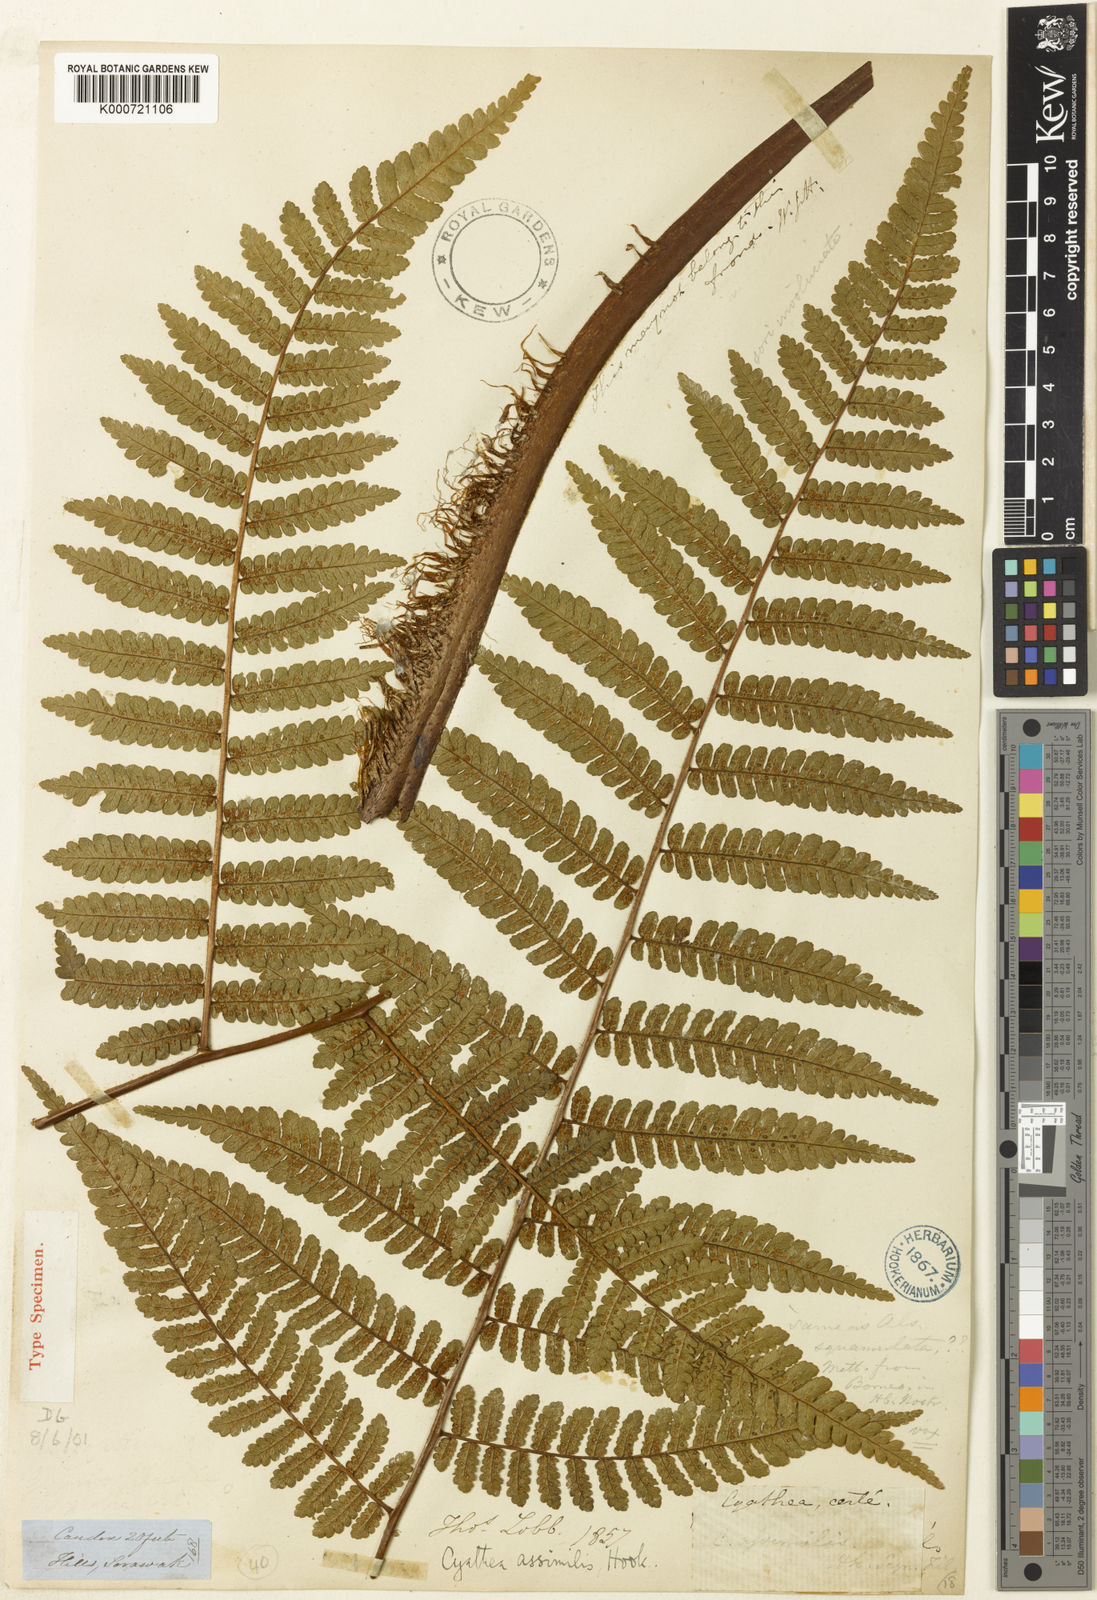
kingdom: Plantae
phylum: Tracheophyta
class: Polypodiopsida
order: Cyatheales
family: Cyatheaceae
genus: Sphaeropteris
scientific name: Sphaeropteris assimilis
